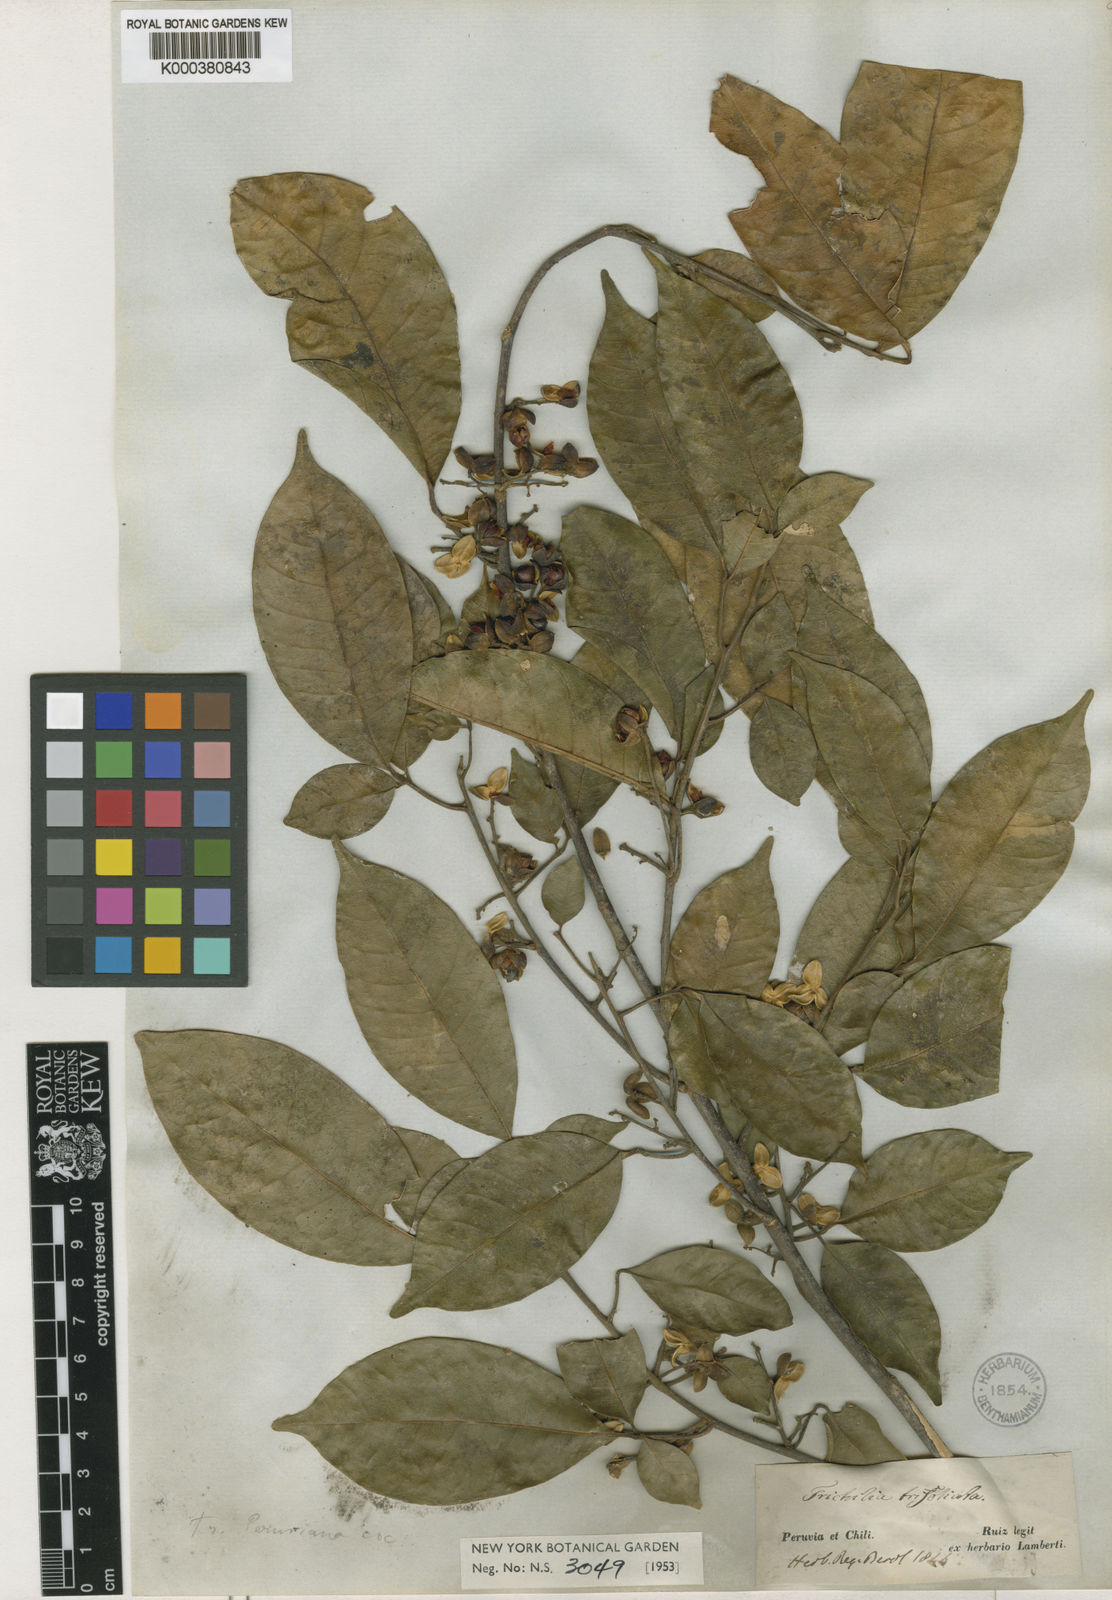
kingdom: Plantae
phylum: Tracheophyta
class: Magnoliopsida
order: Sapindales
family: Meliaceae
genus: Trichilia
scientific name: Trichilia pallida
